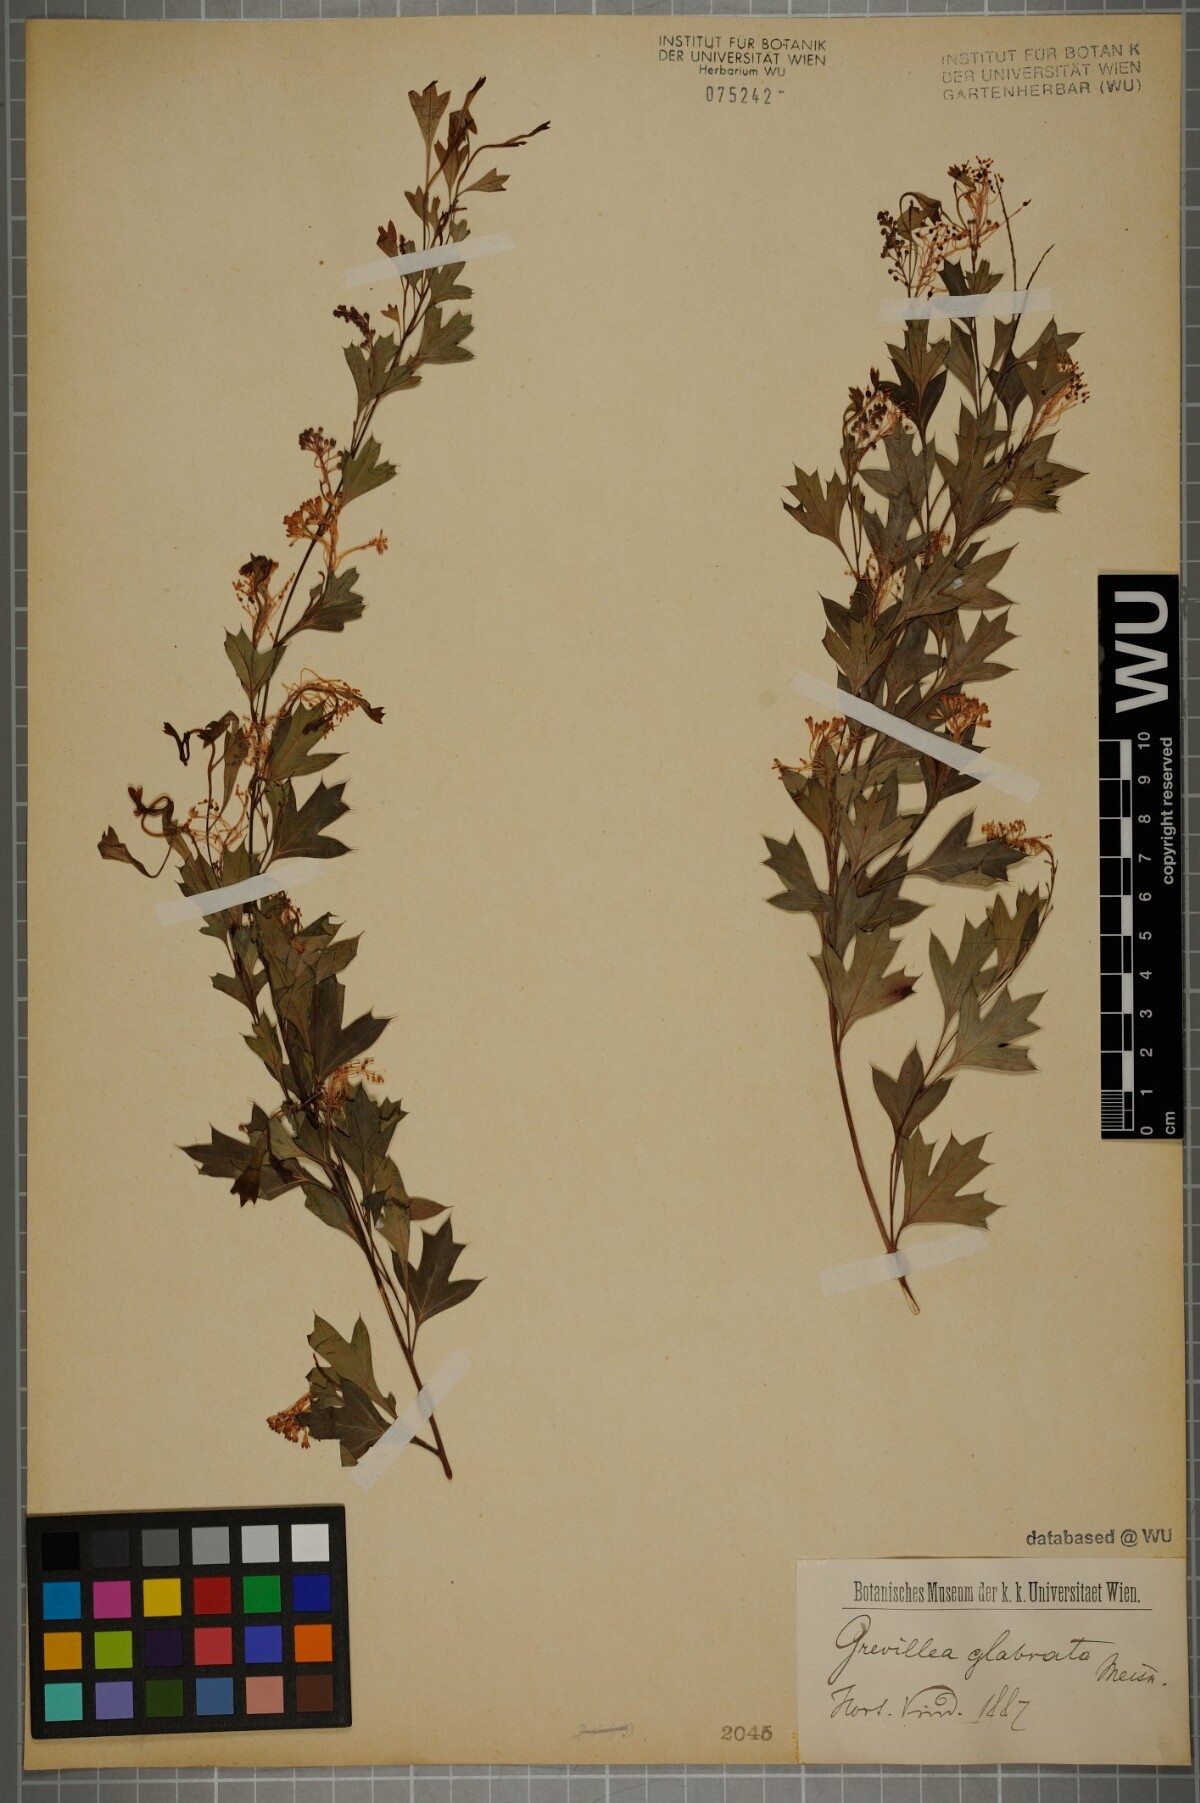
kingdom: Plantae
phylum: Tracheophyta
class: Magnoliopsida
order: Proteales
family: Proteaceae
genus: Grevillea
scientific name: Grevillea manglesii
